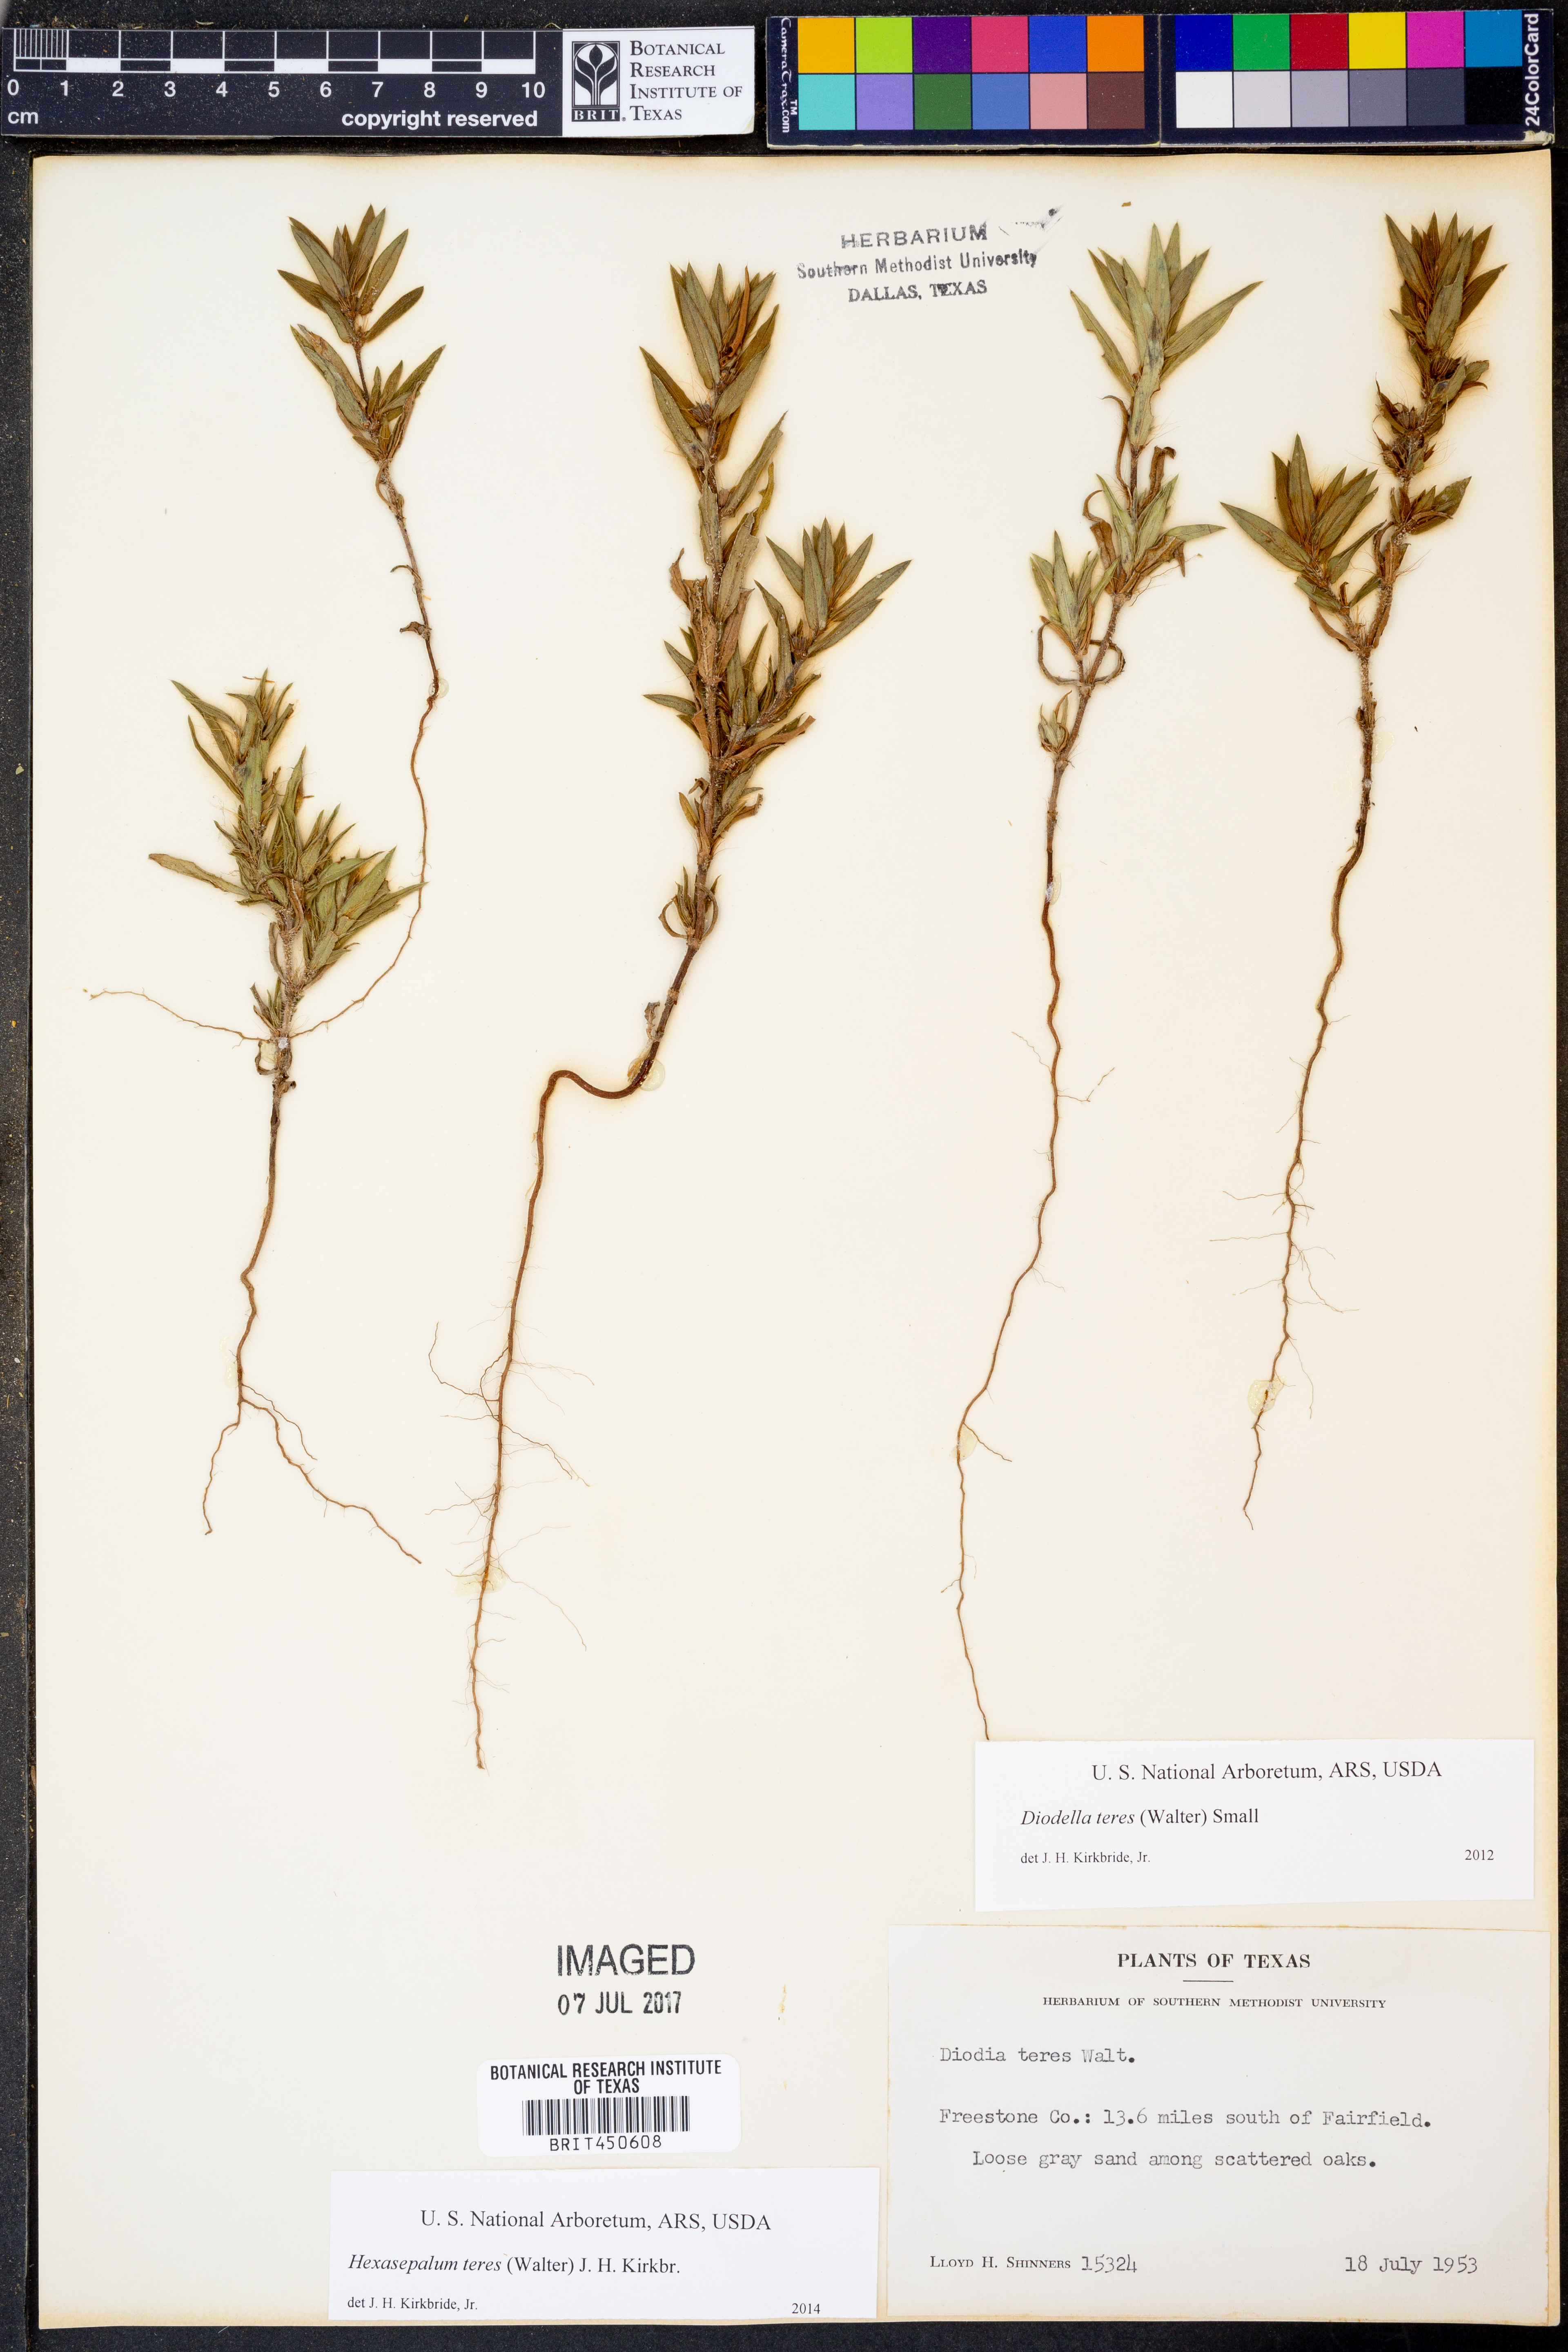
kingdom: Plantae
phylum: Tracheophyta
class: Magnoliopsida
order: Gentianales
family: Rubiaceae
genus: Hexasepalum
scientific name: Hexasepalum teres
